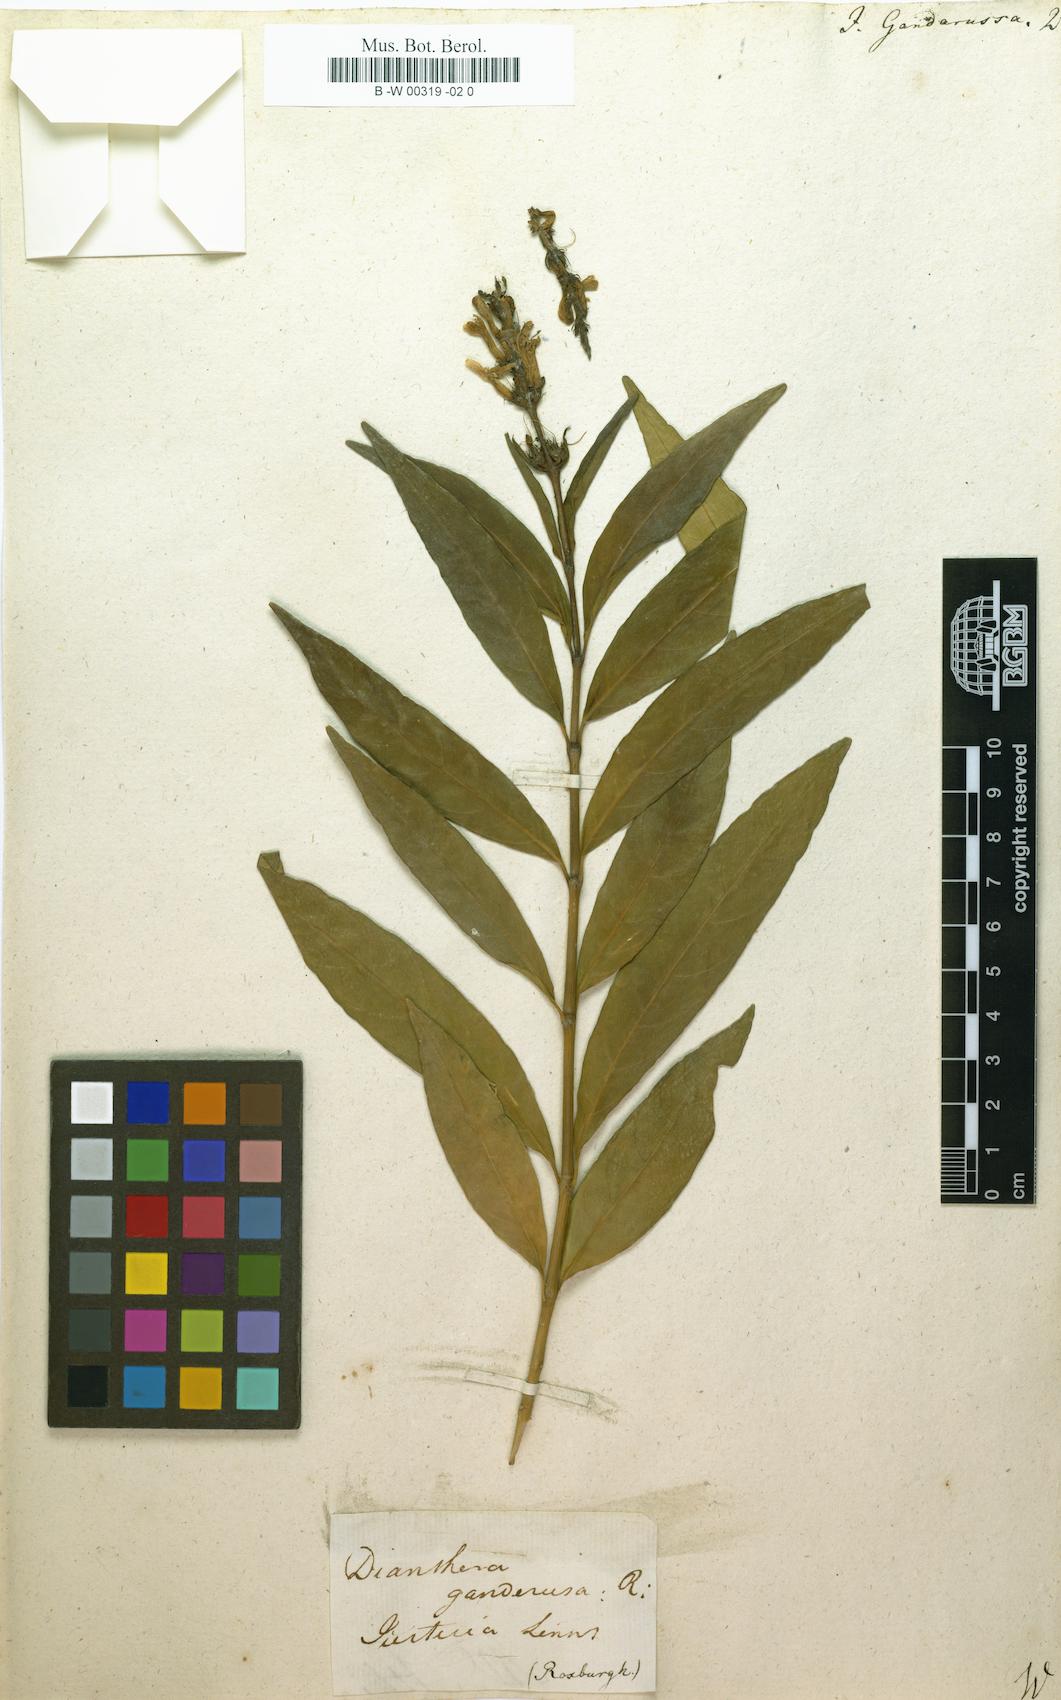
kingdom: Plantae
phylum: Tracheophyta
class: Magnoliopsida
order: Lamiales
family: Acanthaceae
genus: Justicia
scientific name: Justicia gendarussa
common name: Warer willow
